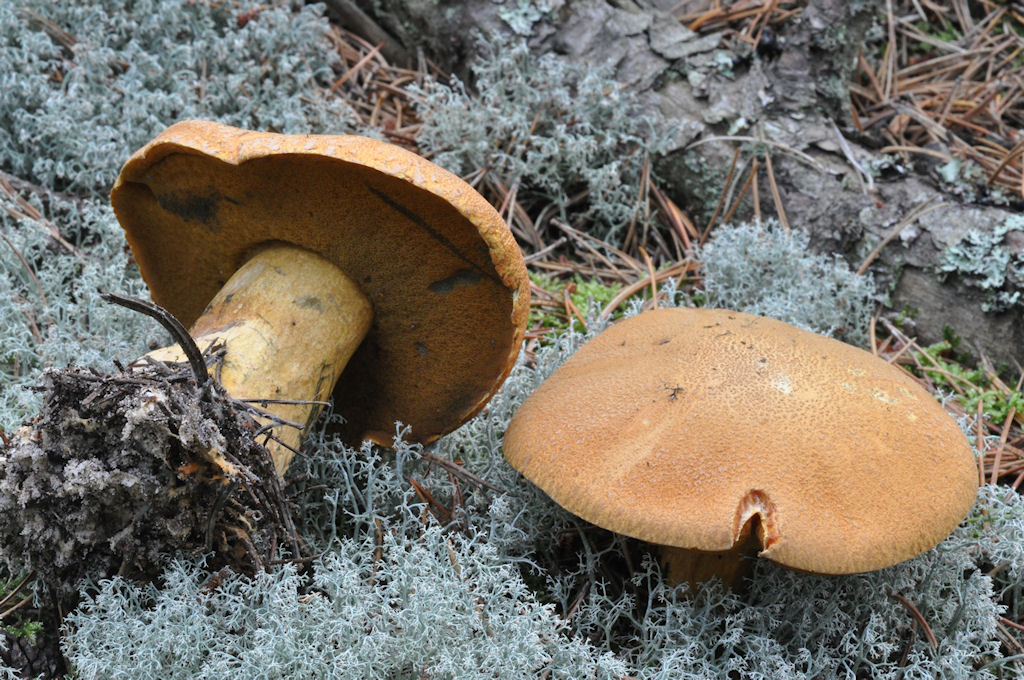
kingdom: Fungi
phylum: Basidiomycota
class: Agaricomycetes
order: Boletales
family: Suillaceae
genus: Suillus
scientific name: Suillus variegatus
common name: broget slimrørhat
